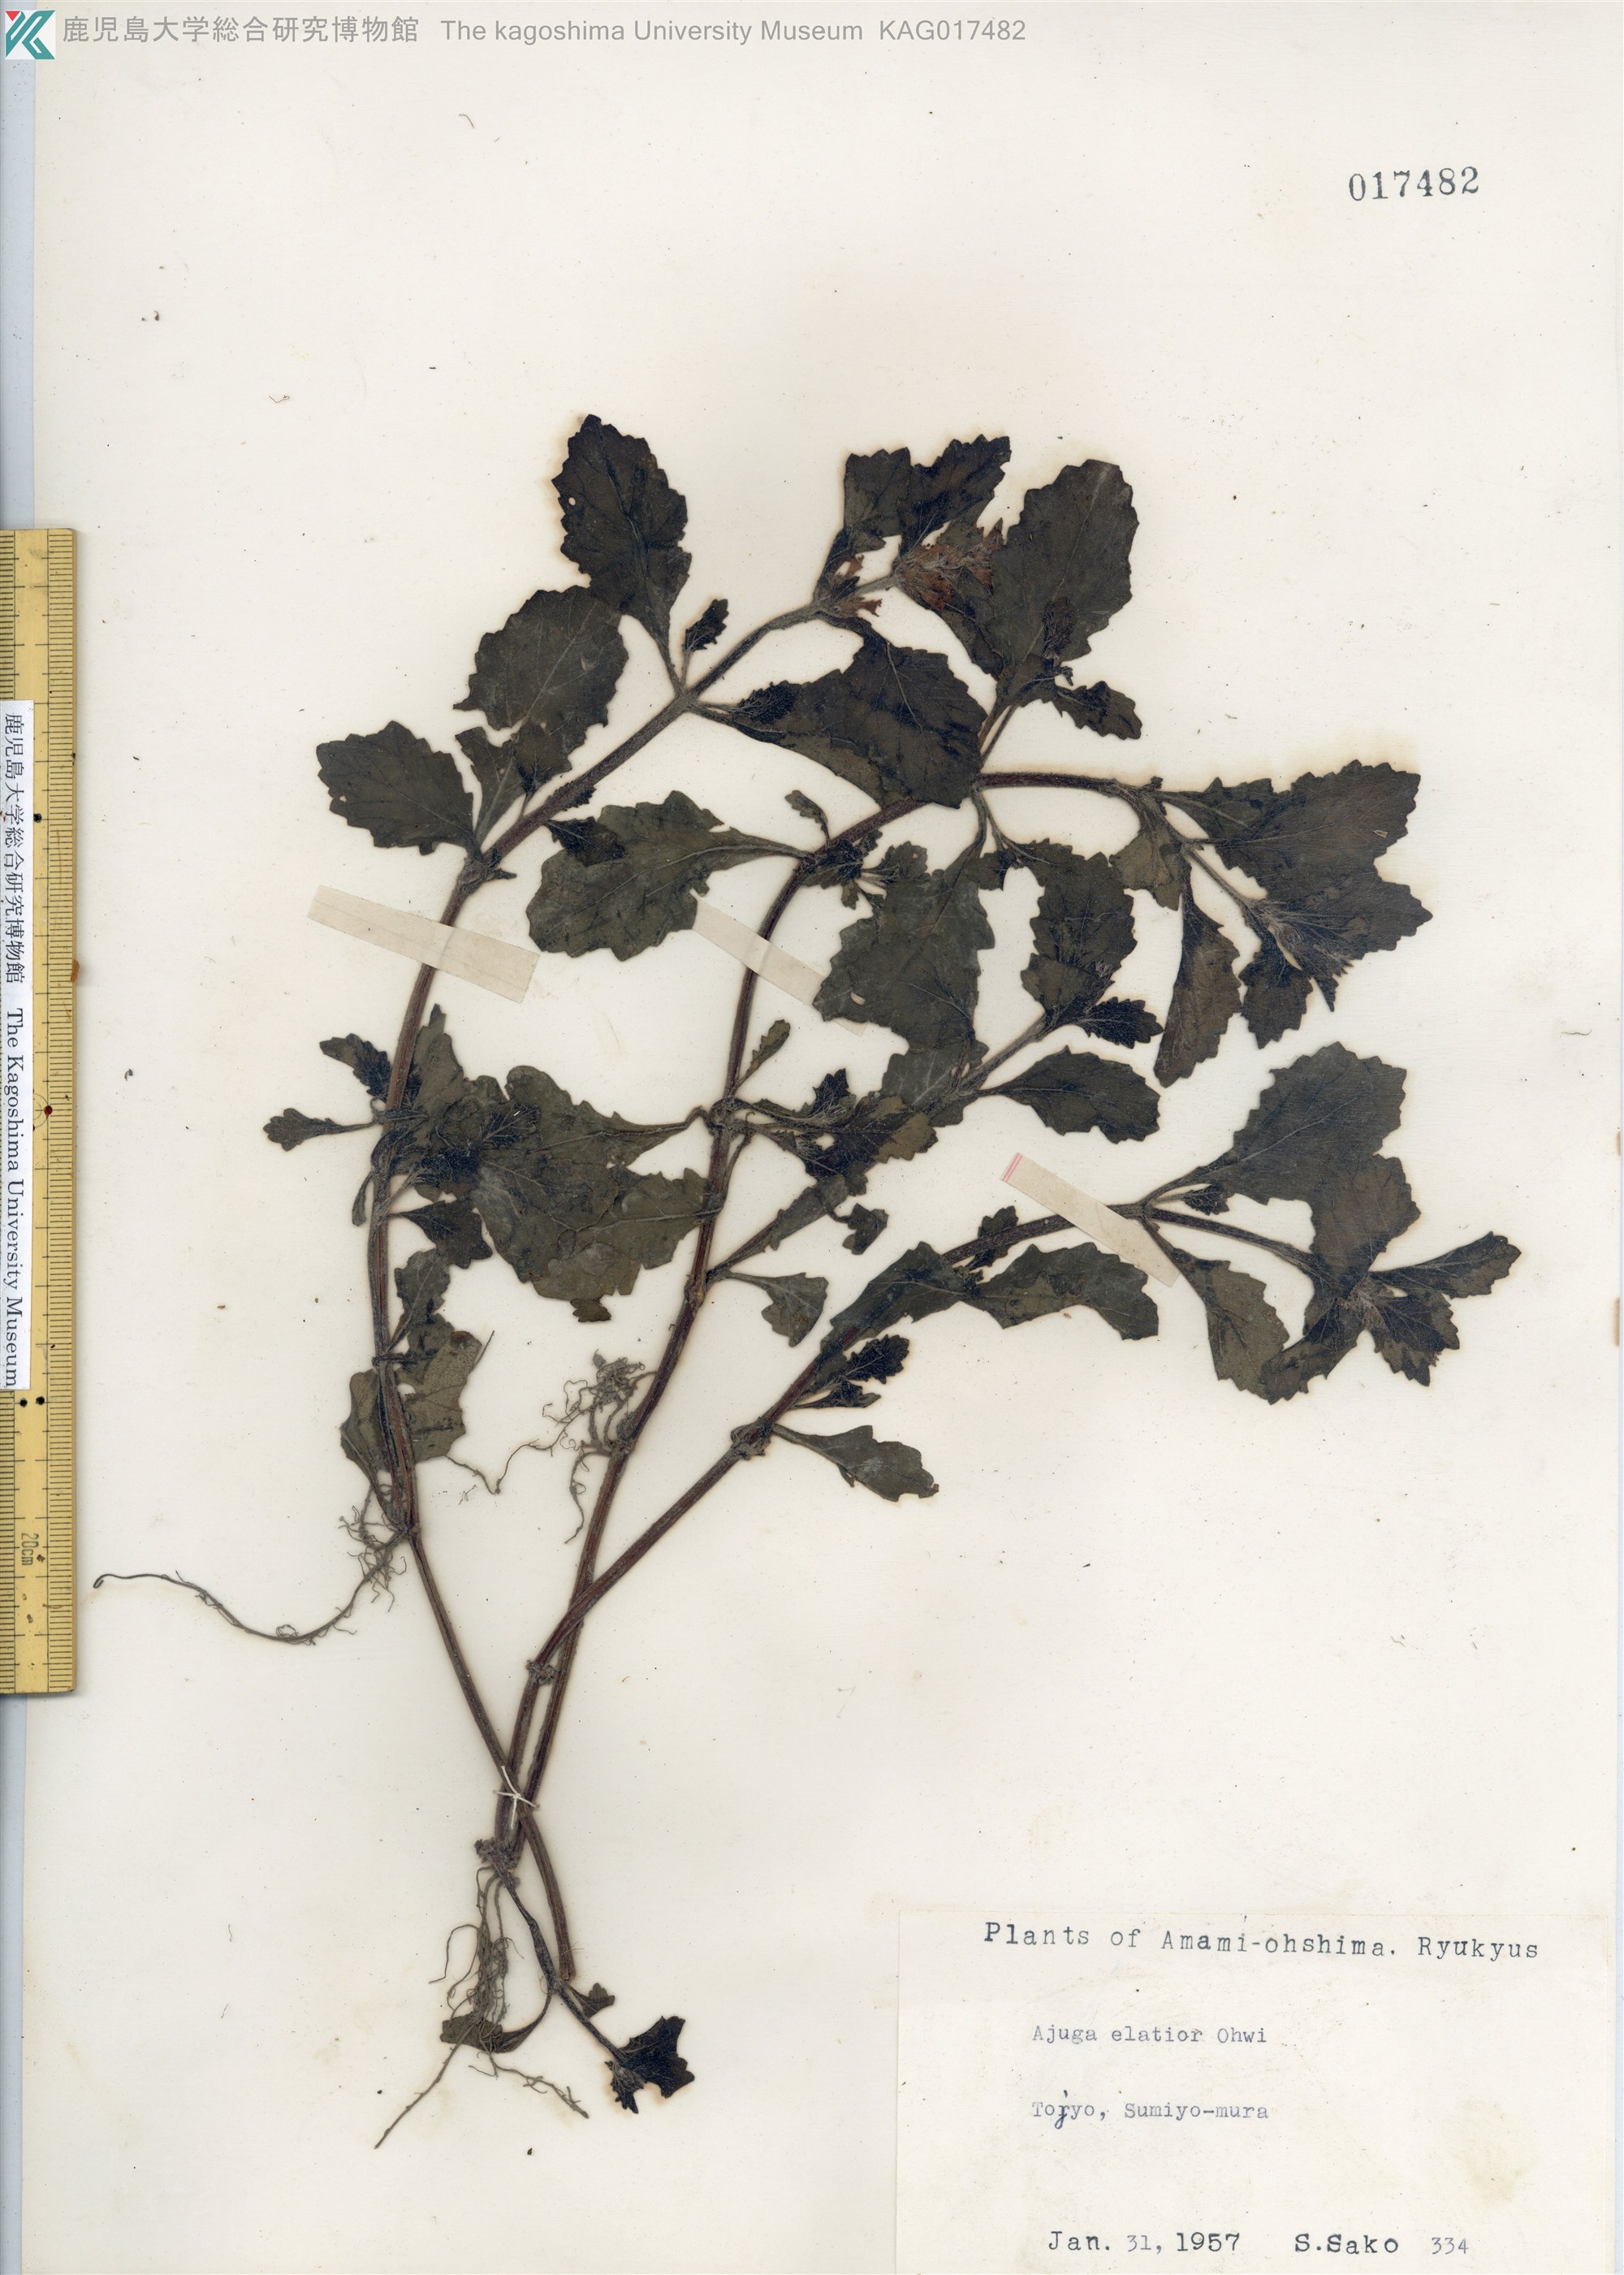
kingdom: Plantae
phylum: Tracheophyta
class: Magnoliopsida
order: Lamiales
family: Lamiaceae
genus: Ajuga
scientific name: Ajuga dictyocarpa
